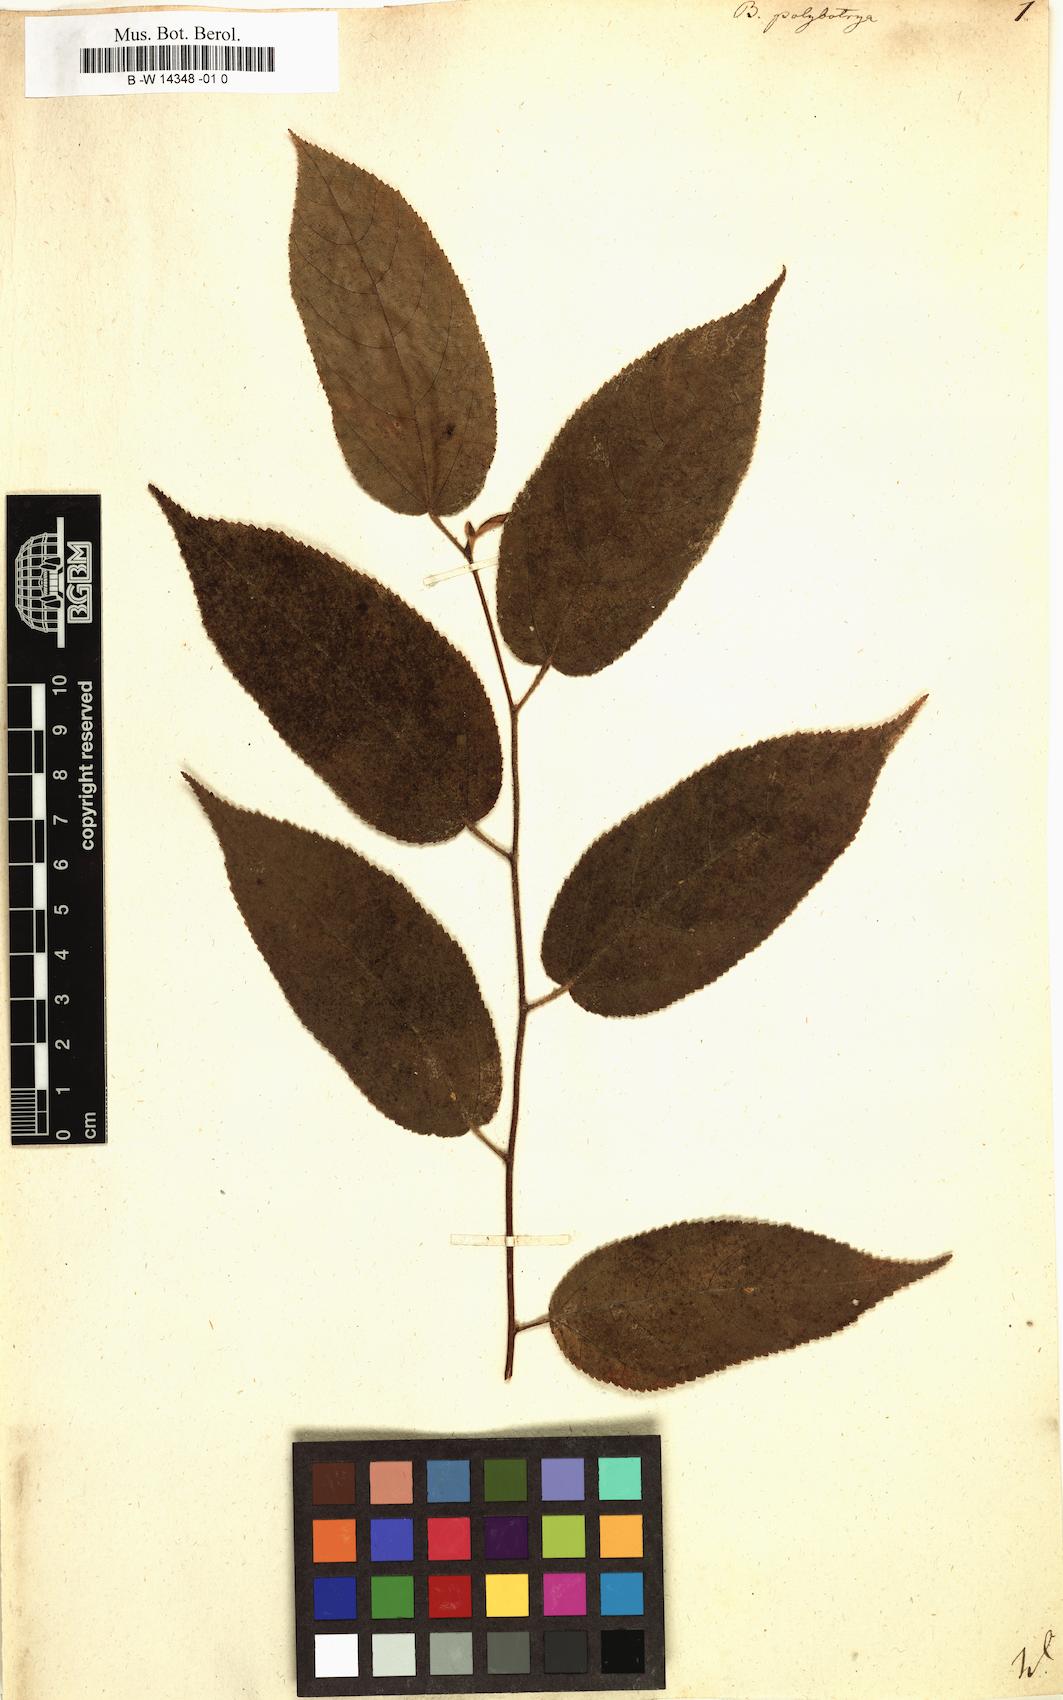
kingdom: Plantae
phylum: Tracheophyta
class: Magnoliopsida
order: Malvales
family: Malvaceae
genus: Guazuma
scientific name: Guazuma ulmifolia
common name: Bastard-cedar
